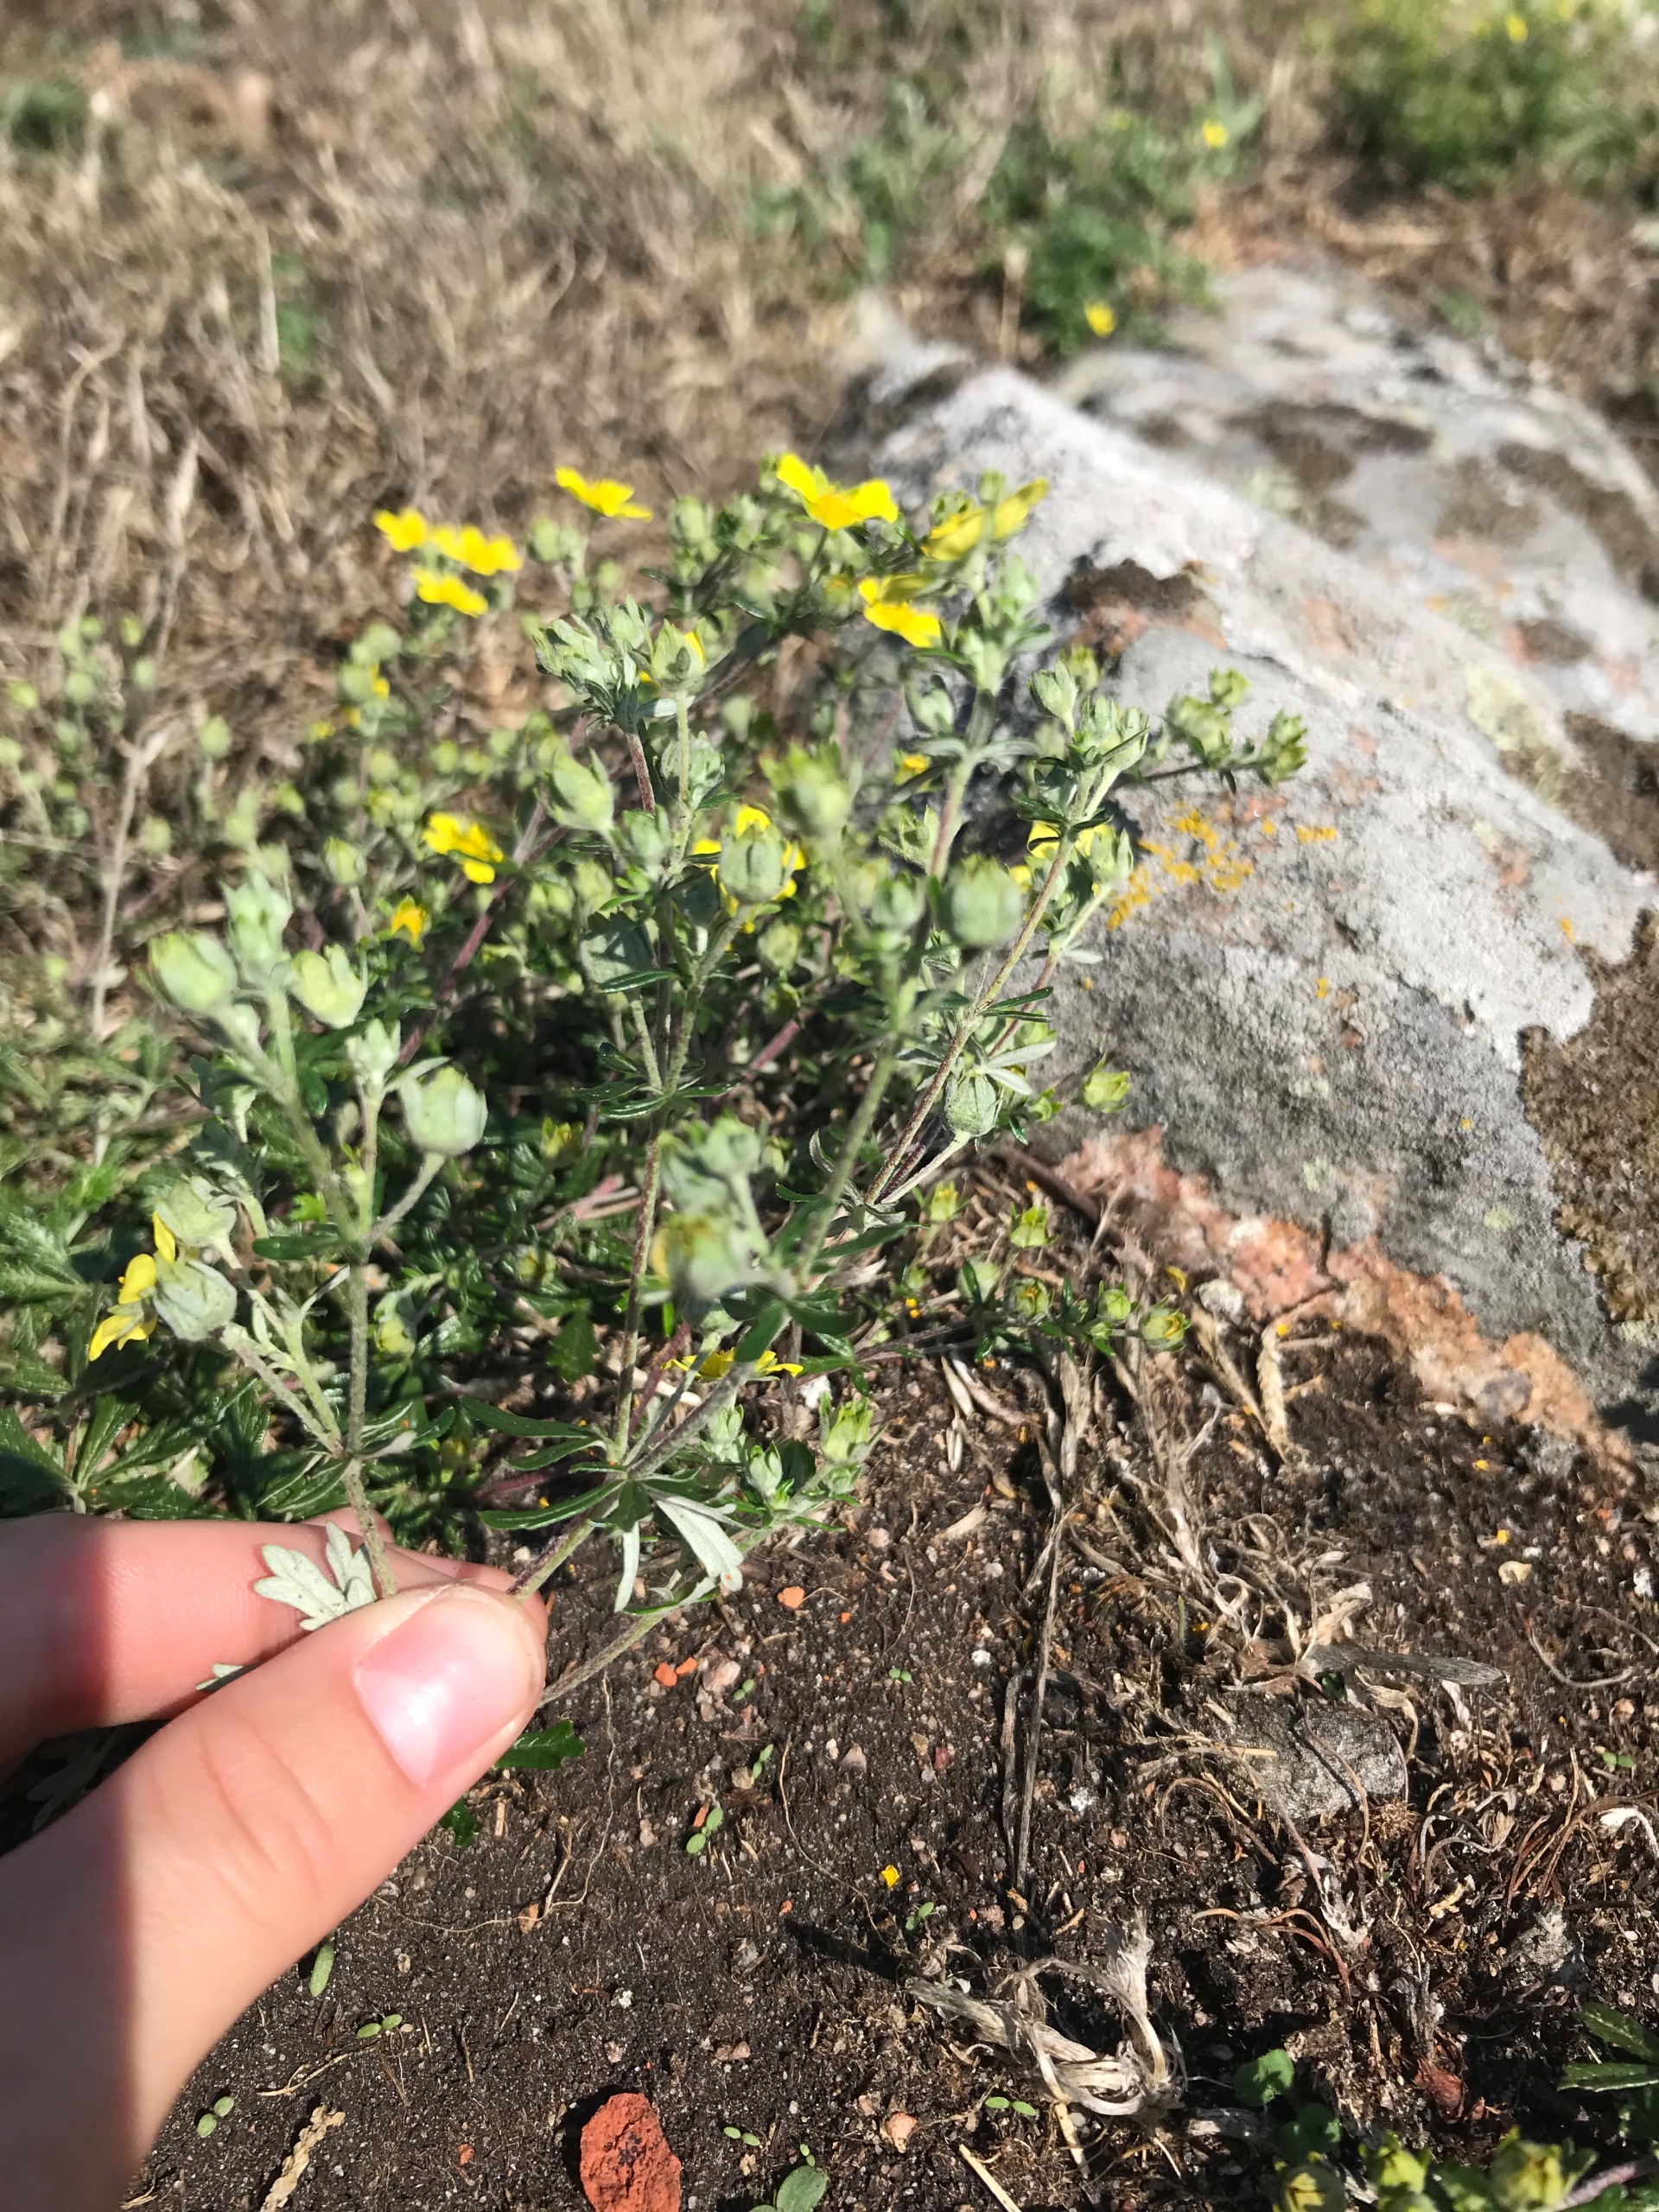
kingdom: Plantae
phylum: Tracheophyta
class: Magnoliopsida
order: Rosales
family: Rosaceae
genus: Potentilla
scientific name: Potentilla argentea
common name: Sølv-potentil
